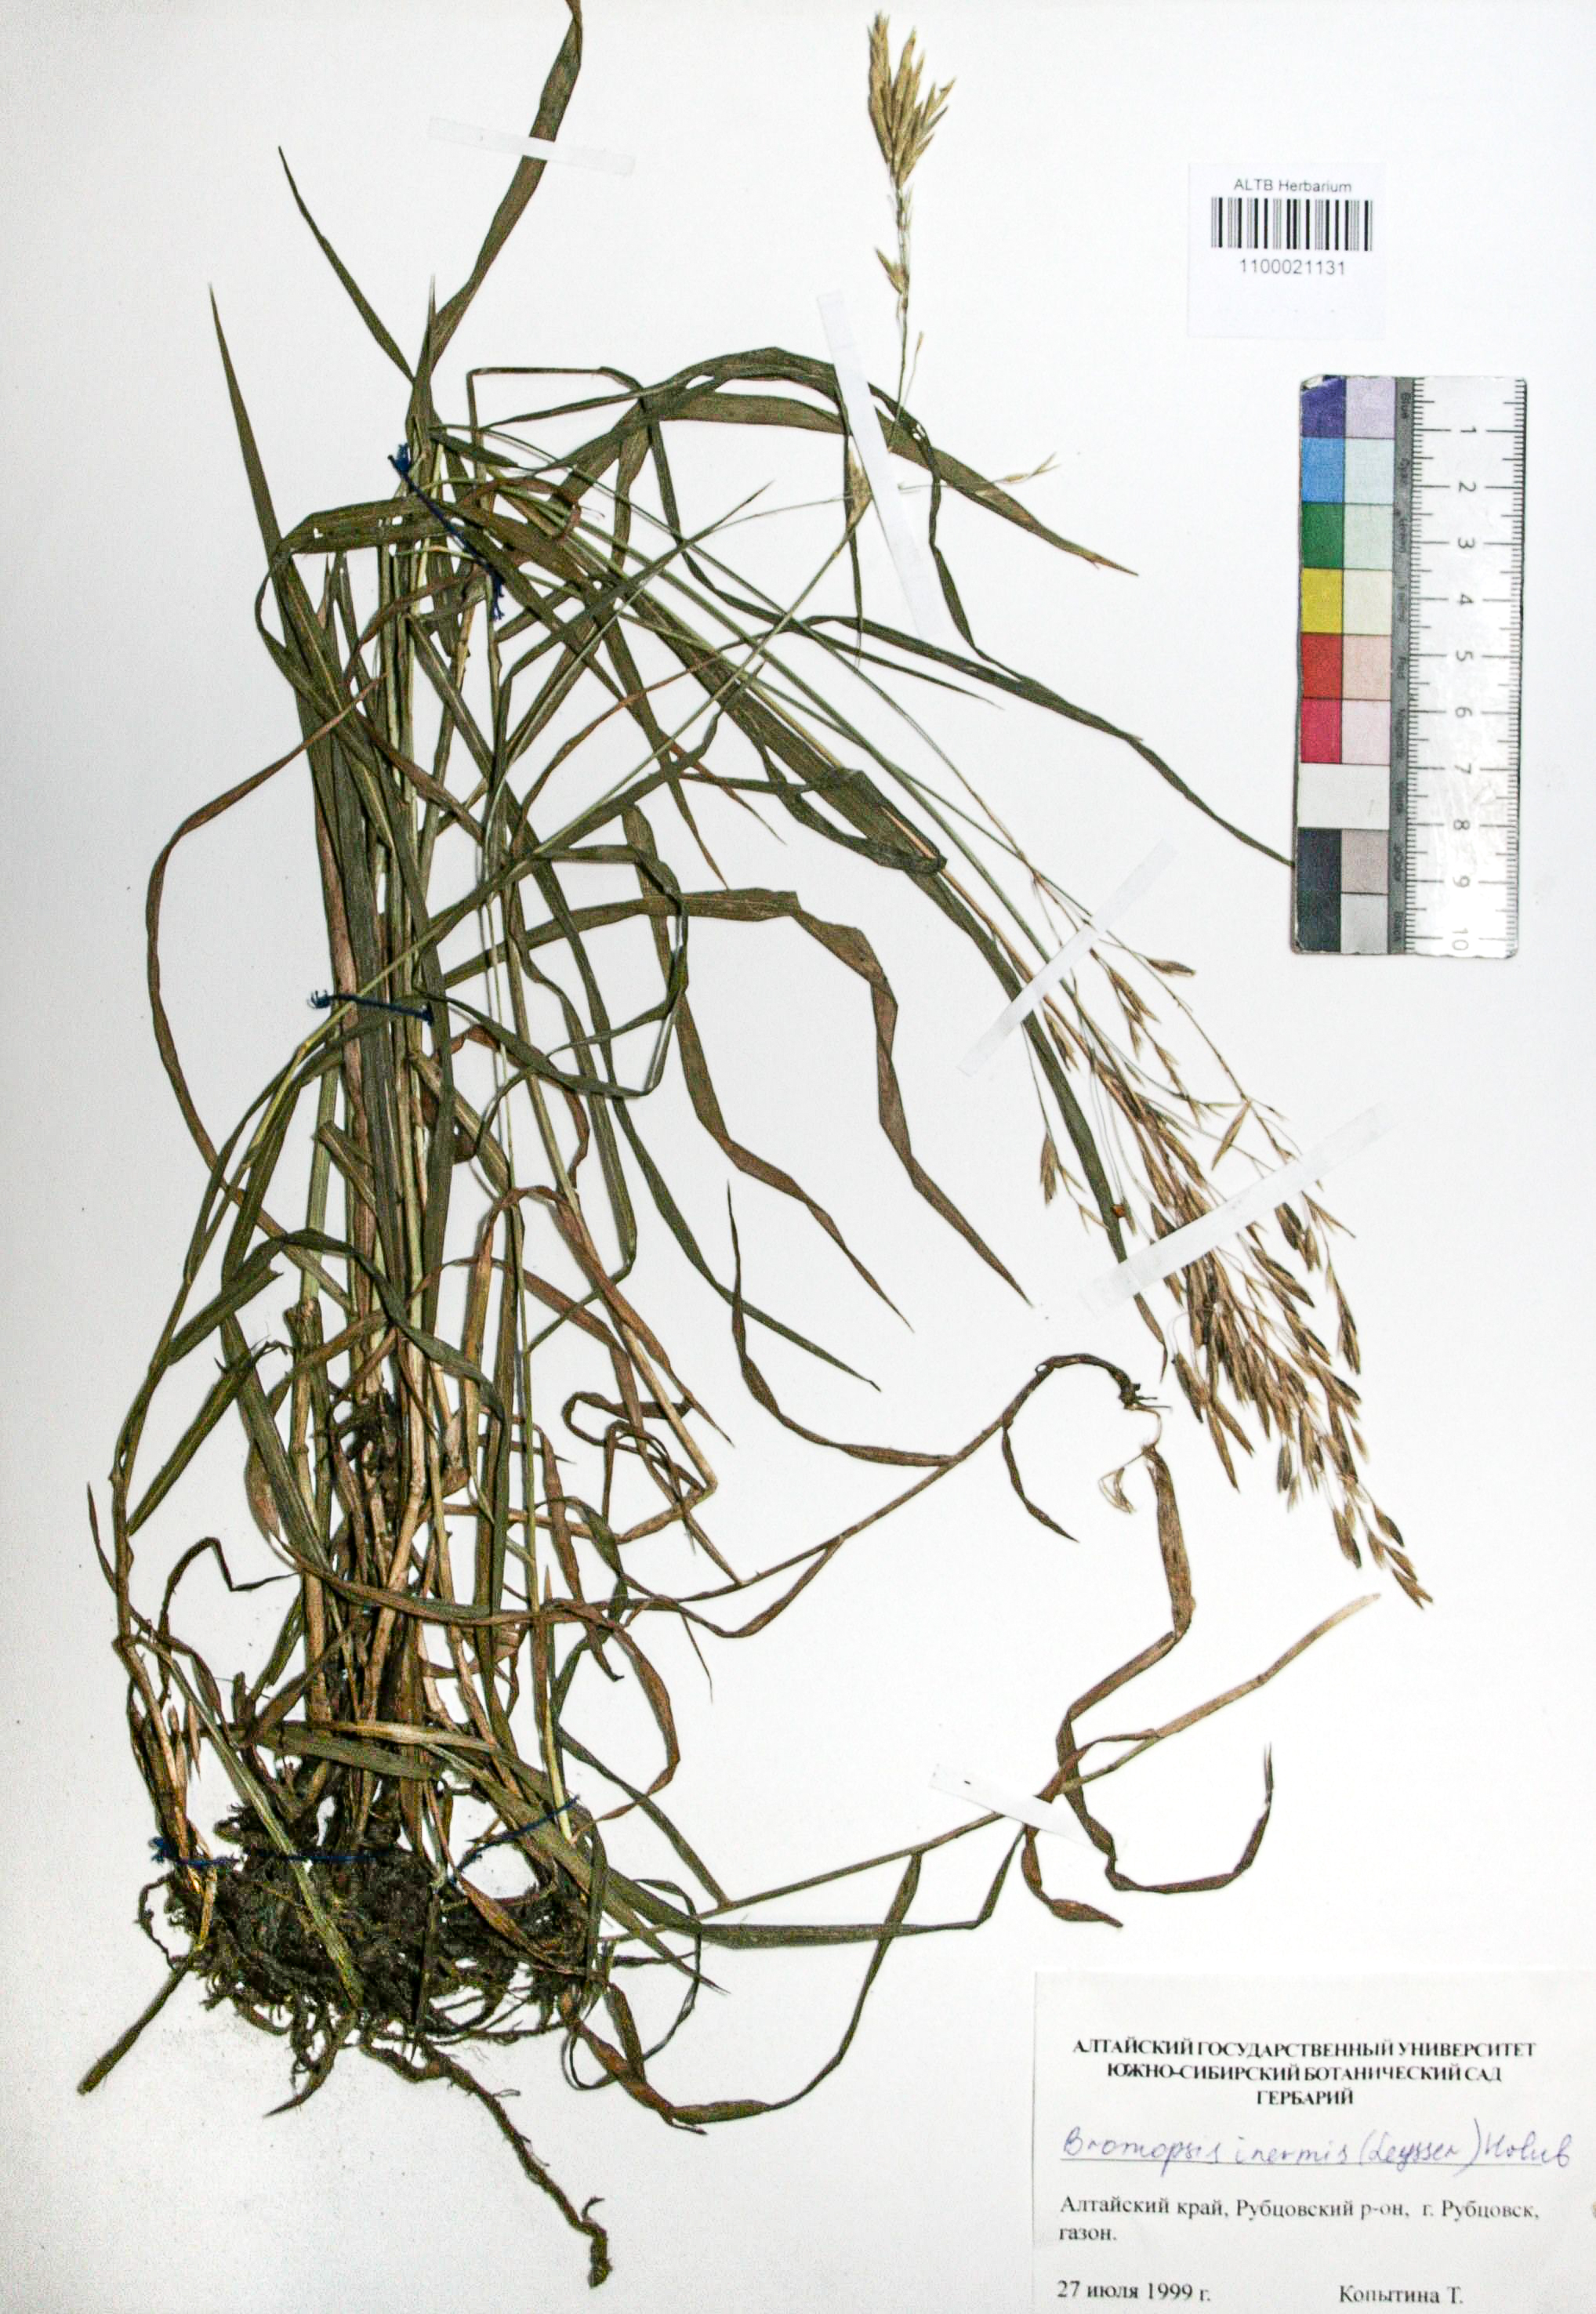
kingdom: Plantae
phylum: Tracheophyta
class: Liliopsida
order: Poales
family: Poaceae
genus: Bromus
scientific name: Bromus inermis
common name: Smooth brome
